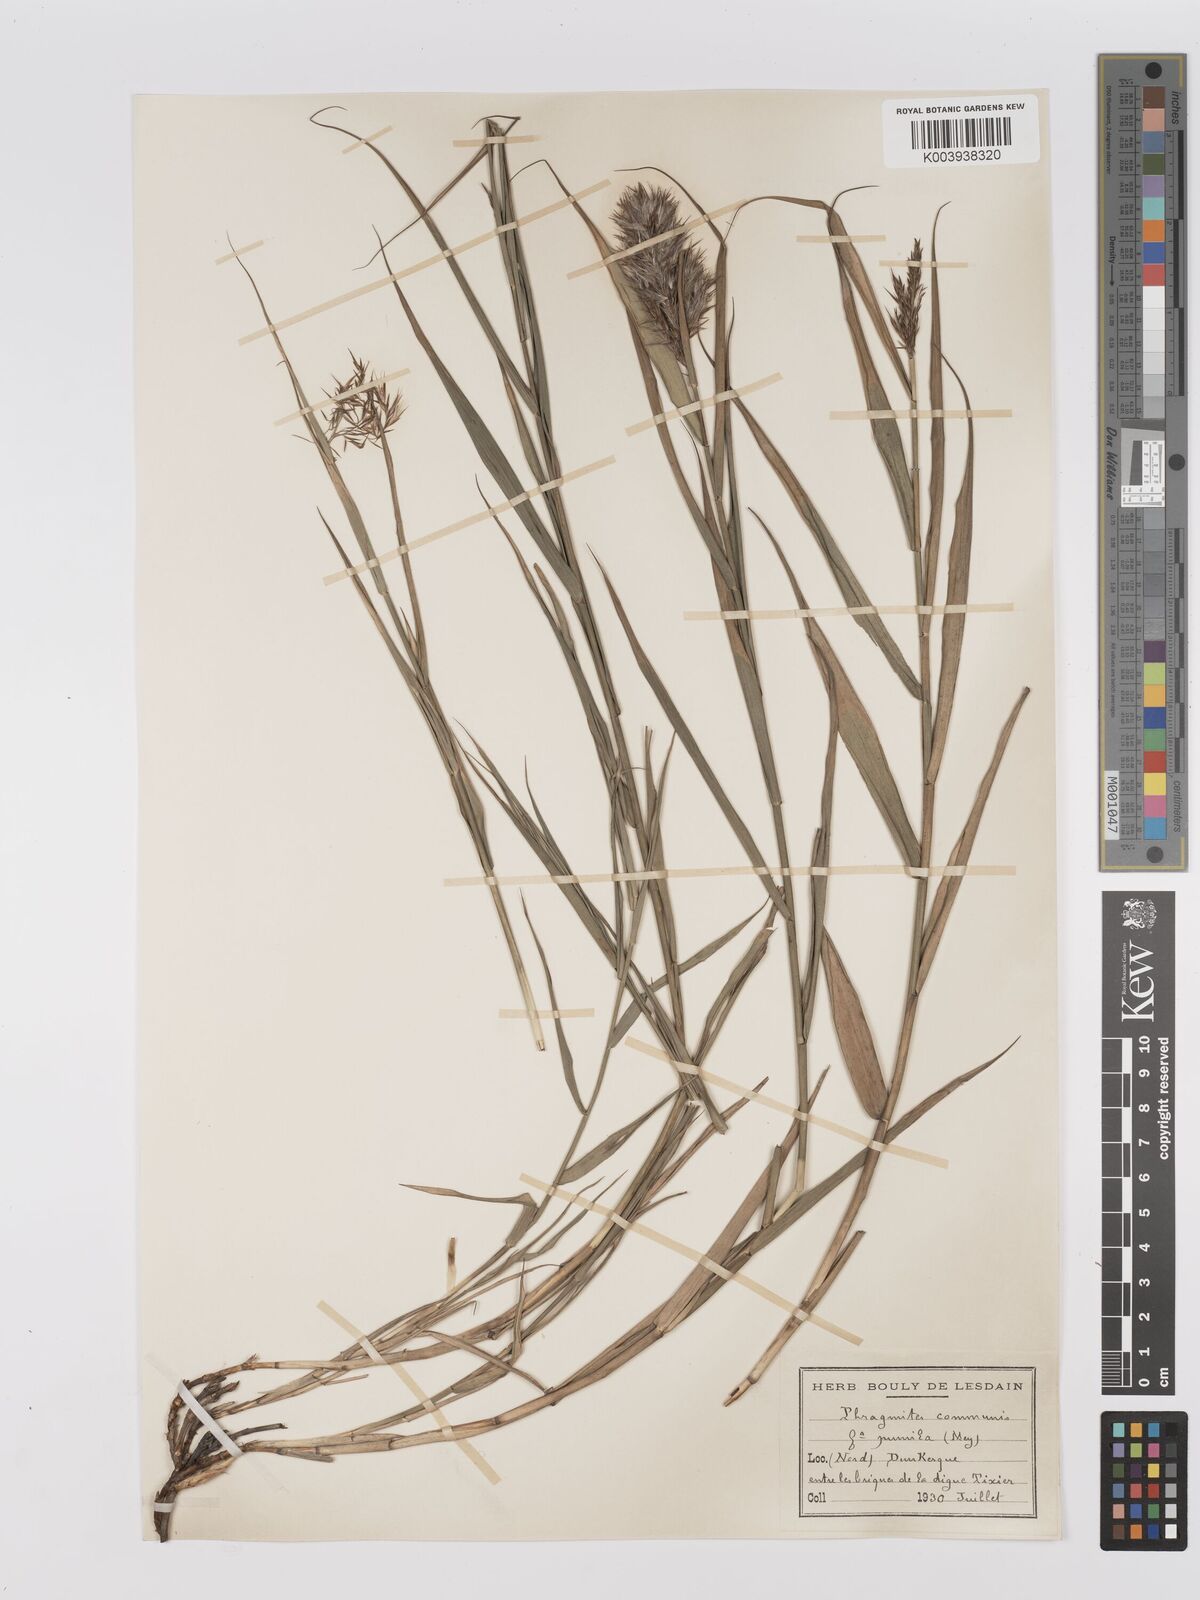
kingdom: Plantae
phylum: Tracheophyta
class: Liliopsida
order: Poales
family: Poaceae
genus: Phragmites
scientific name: Phragmites australis
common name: Common reed
